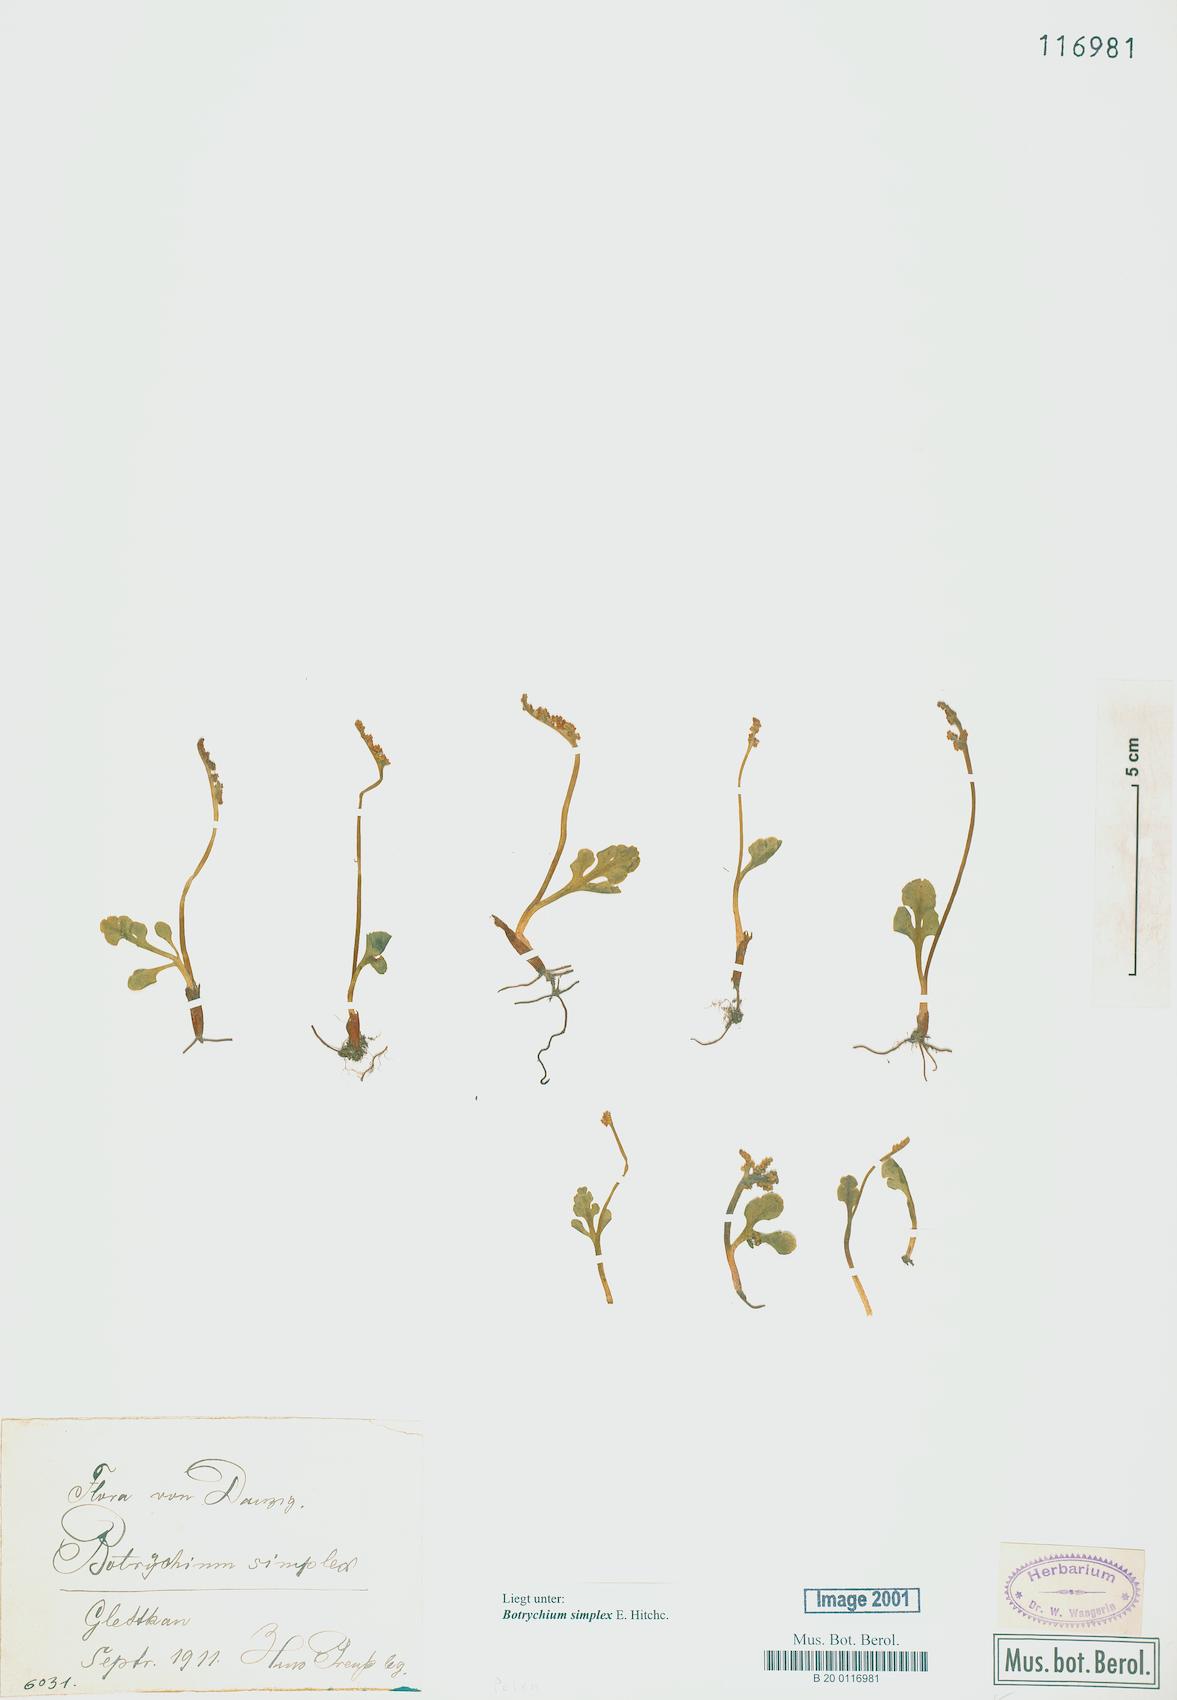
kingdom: Plantae
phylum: Tracheophyta
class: Polypodiopsida
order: Ophioglossales
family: Ophioglossaceae
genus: Botrychium
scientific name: Botrychium simplex
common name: Least moonwort
